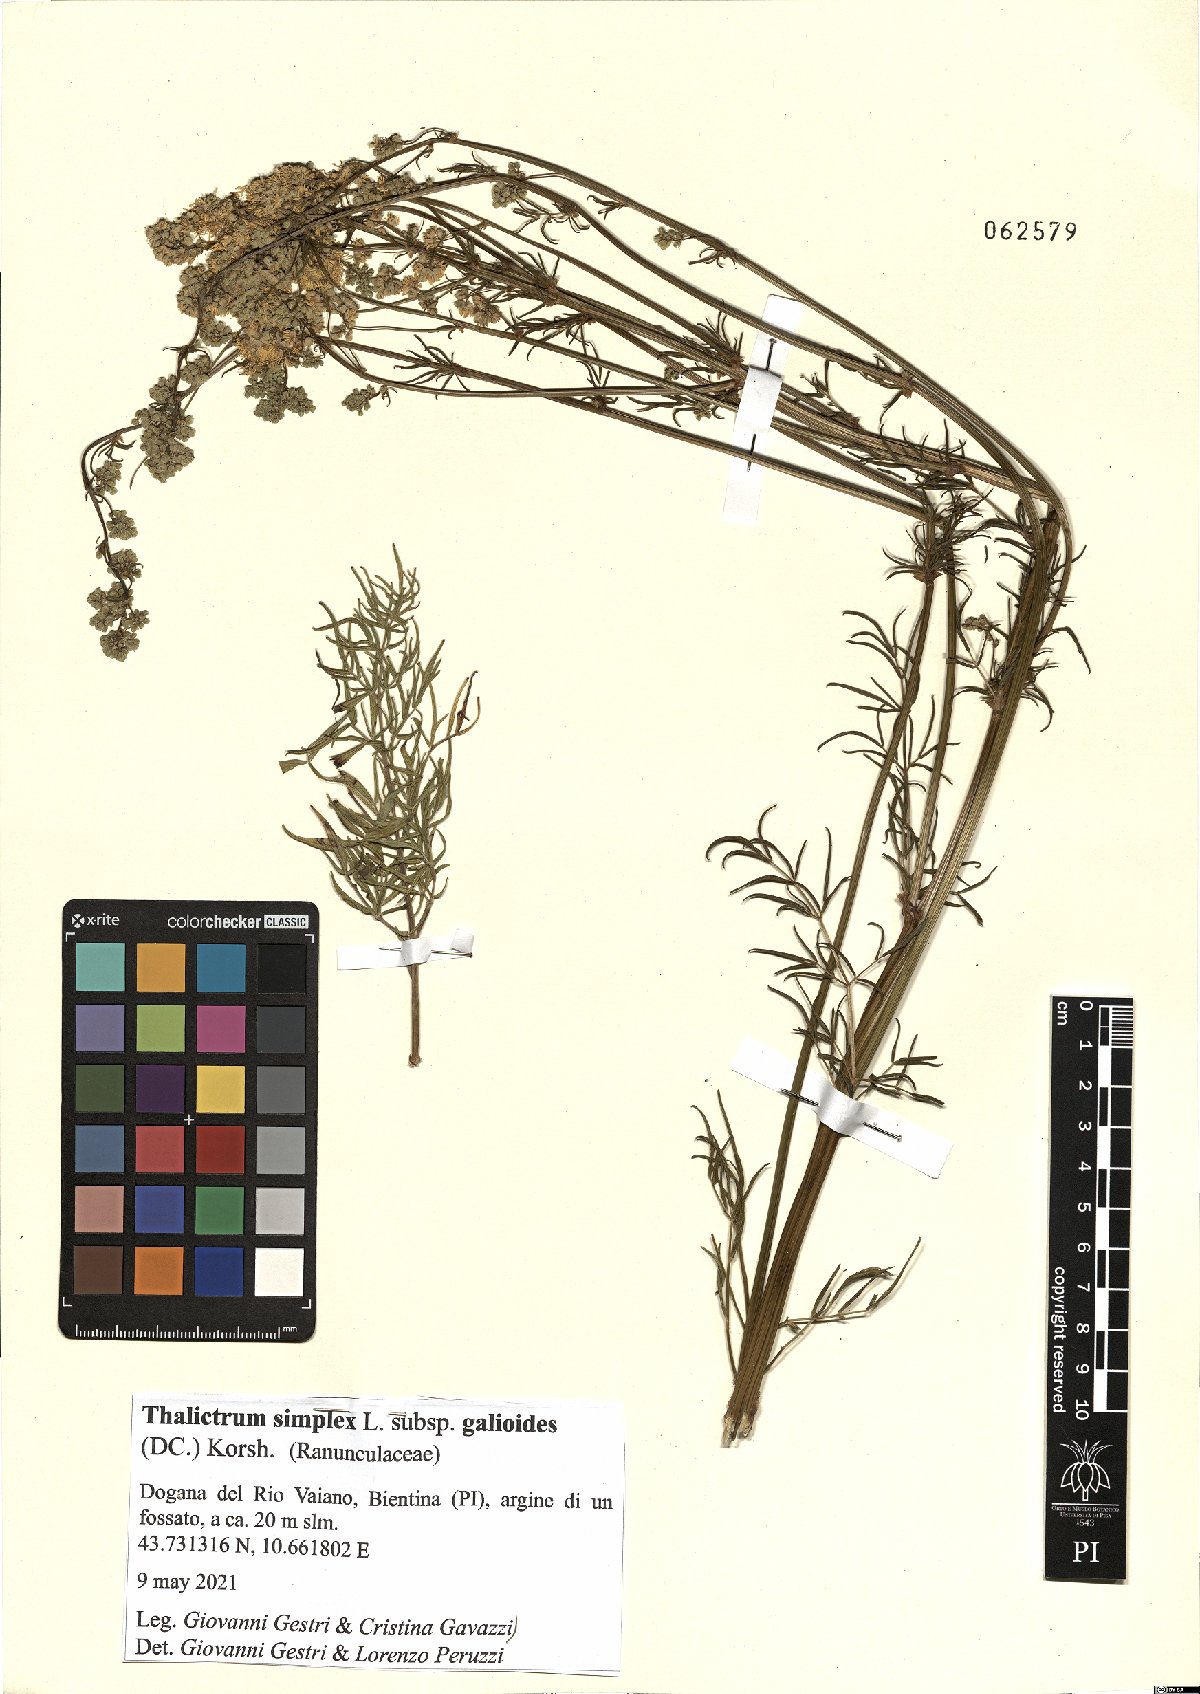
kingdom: Plantae
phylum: Tracheophyta
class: Magnoliopsida
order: Ranunculales
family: Ranunculaceae
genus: Thalictrum
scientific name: Thalictrum simplex
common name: Small meadow-rue
